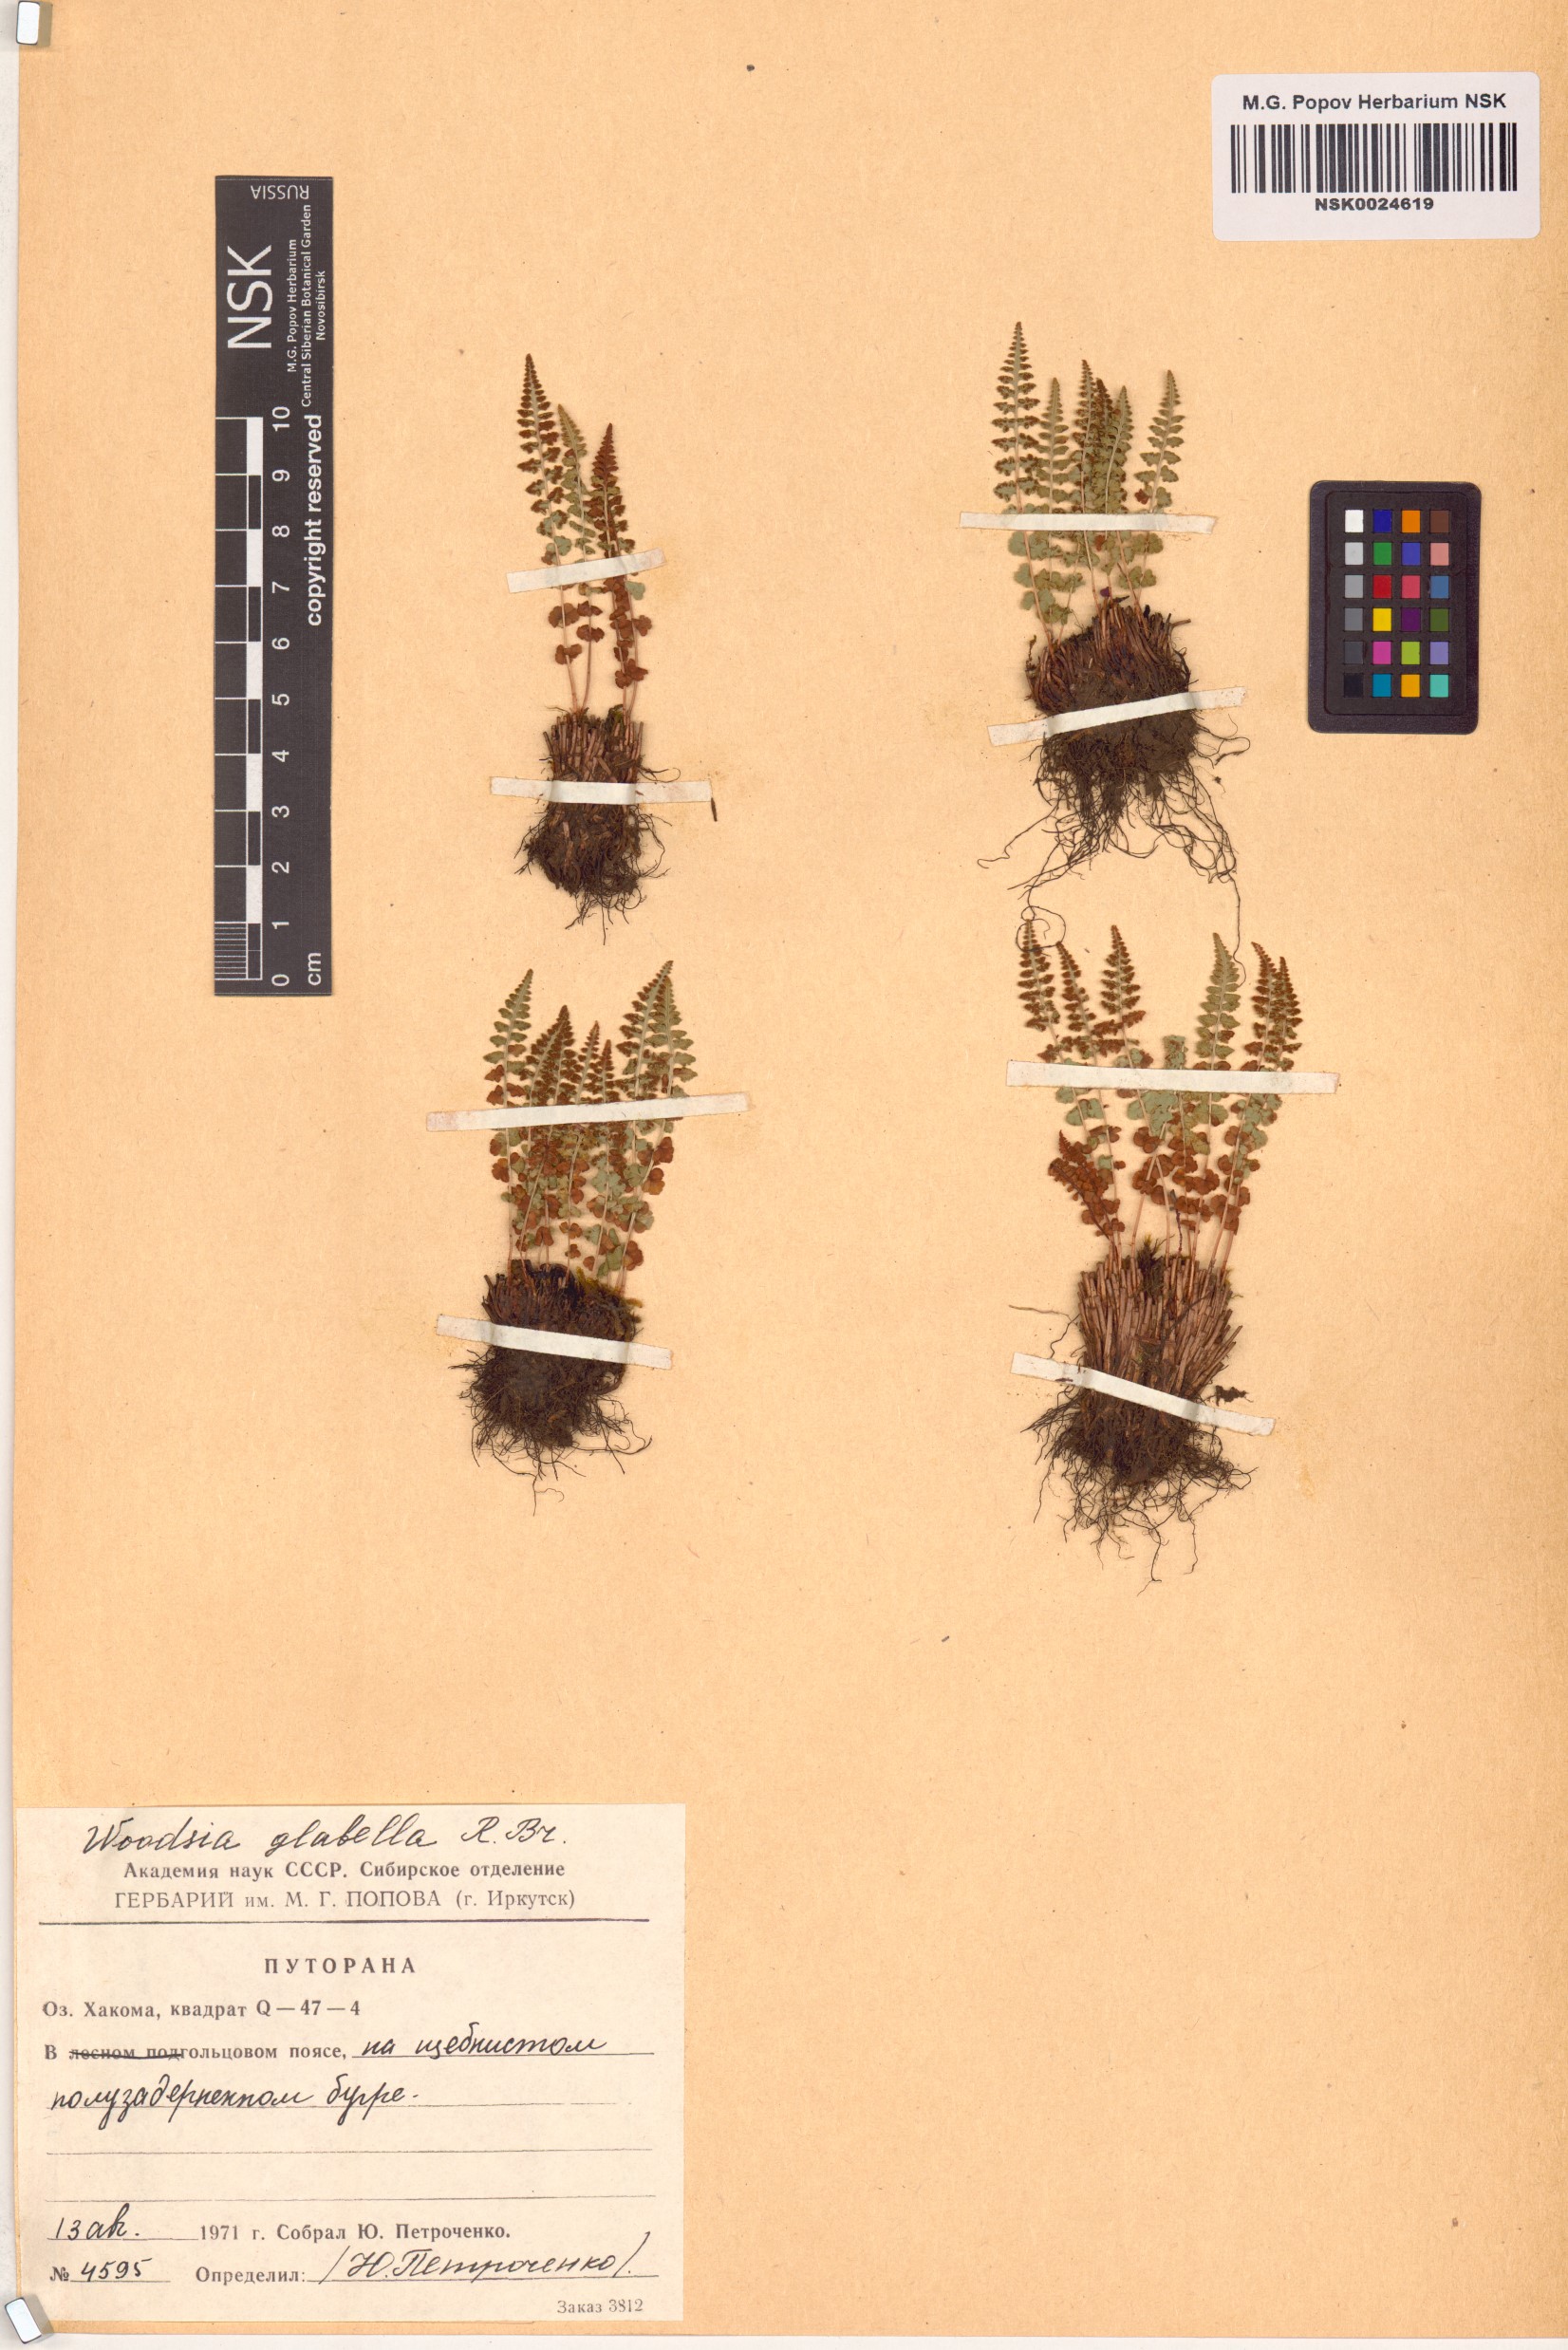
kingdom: Plantae
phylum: Tracheophyta
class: Polypodiopsida
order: Polypodiales
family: Woodsiaceae
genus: Woodsia
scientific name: Woodsia glabella
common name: Smooth woodsia
